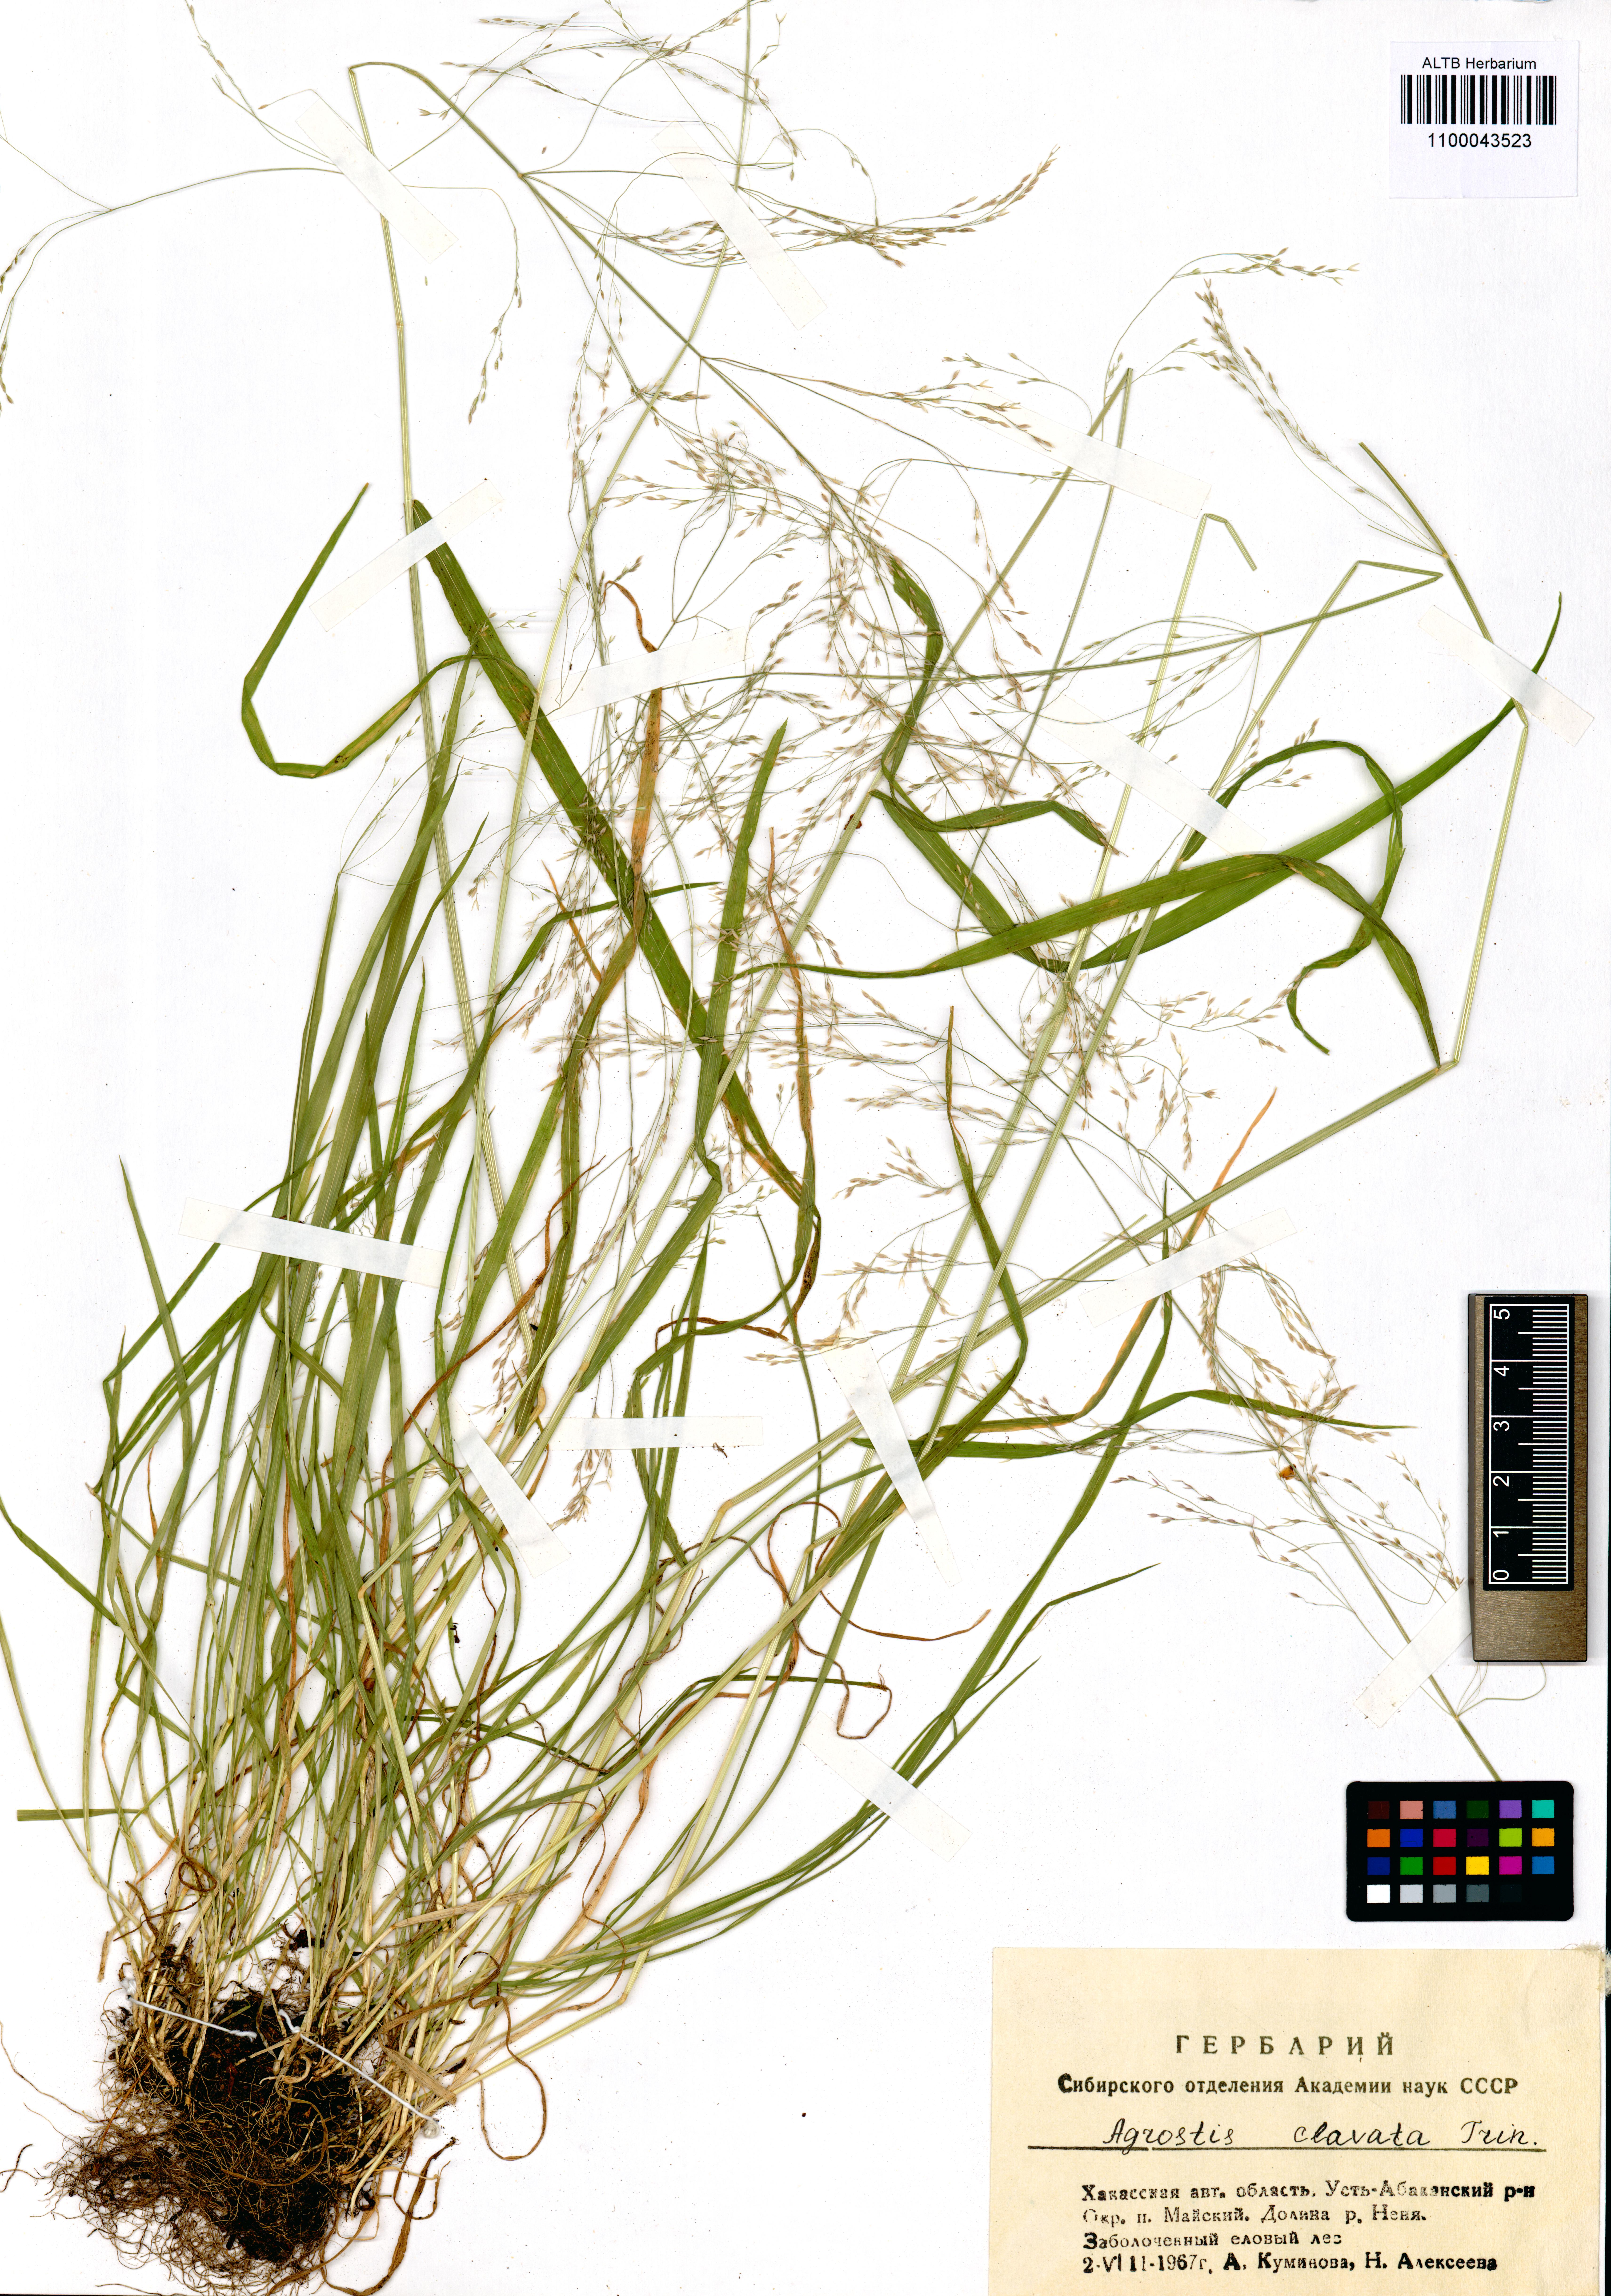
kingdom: Plantae
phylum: Tracheophyta
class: Liliopsida
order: Poales
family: Poaceae
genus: Agrostis
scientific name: Agrostis clavata
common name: Clavate bent
